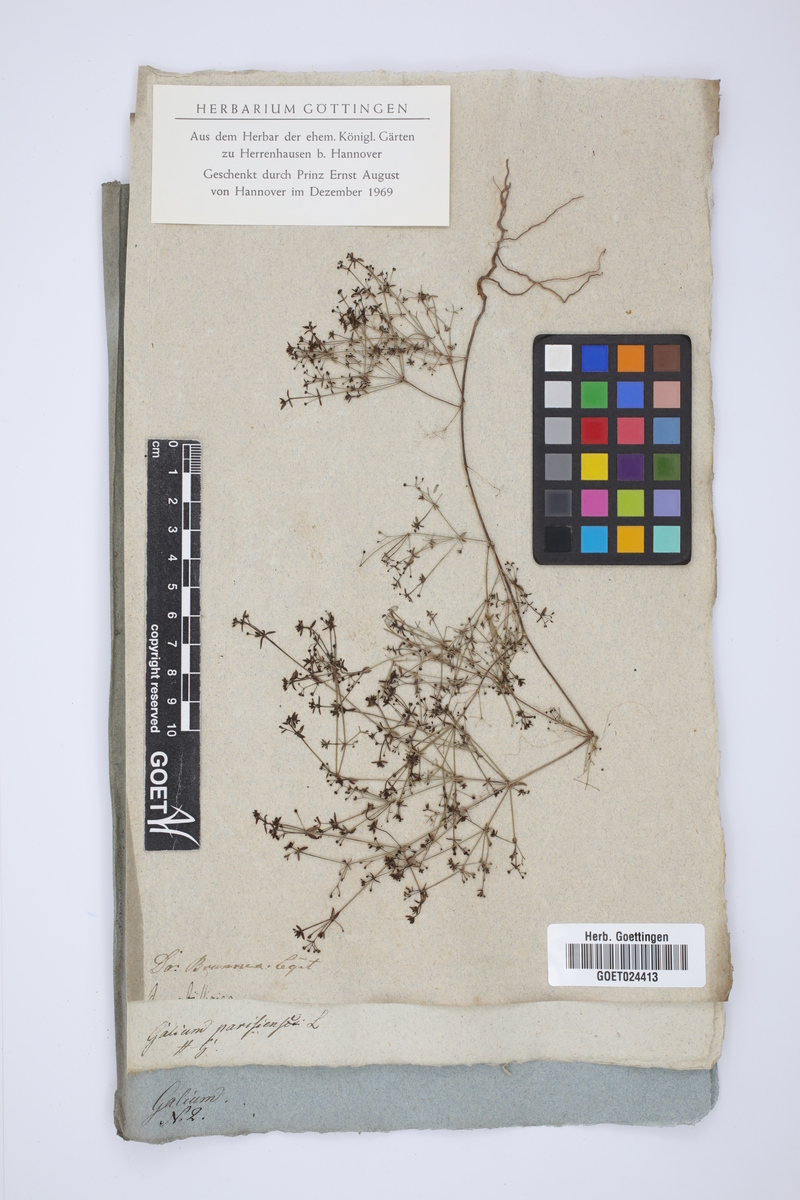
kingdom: Plantae
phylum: Tracheophyta
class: Magnoliopsida
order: Gentianales
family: Rubiaceae
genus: Galium
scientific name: Galium parisiense
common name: Wall bedstraw
